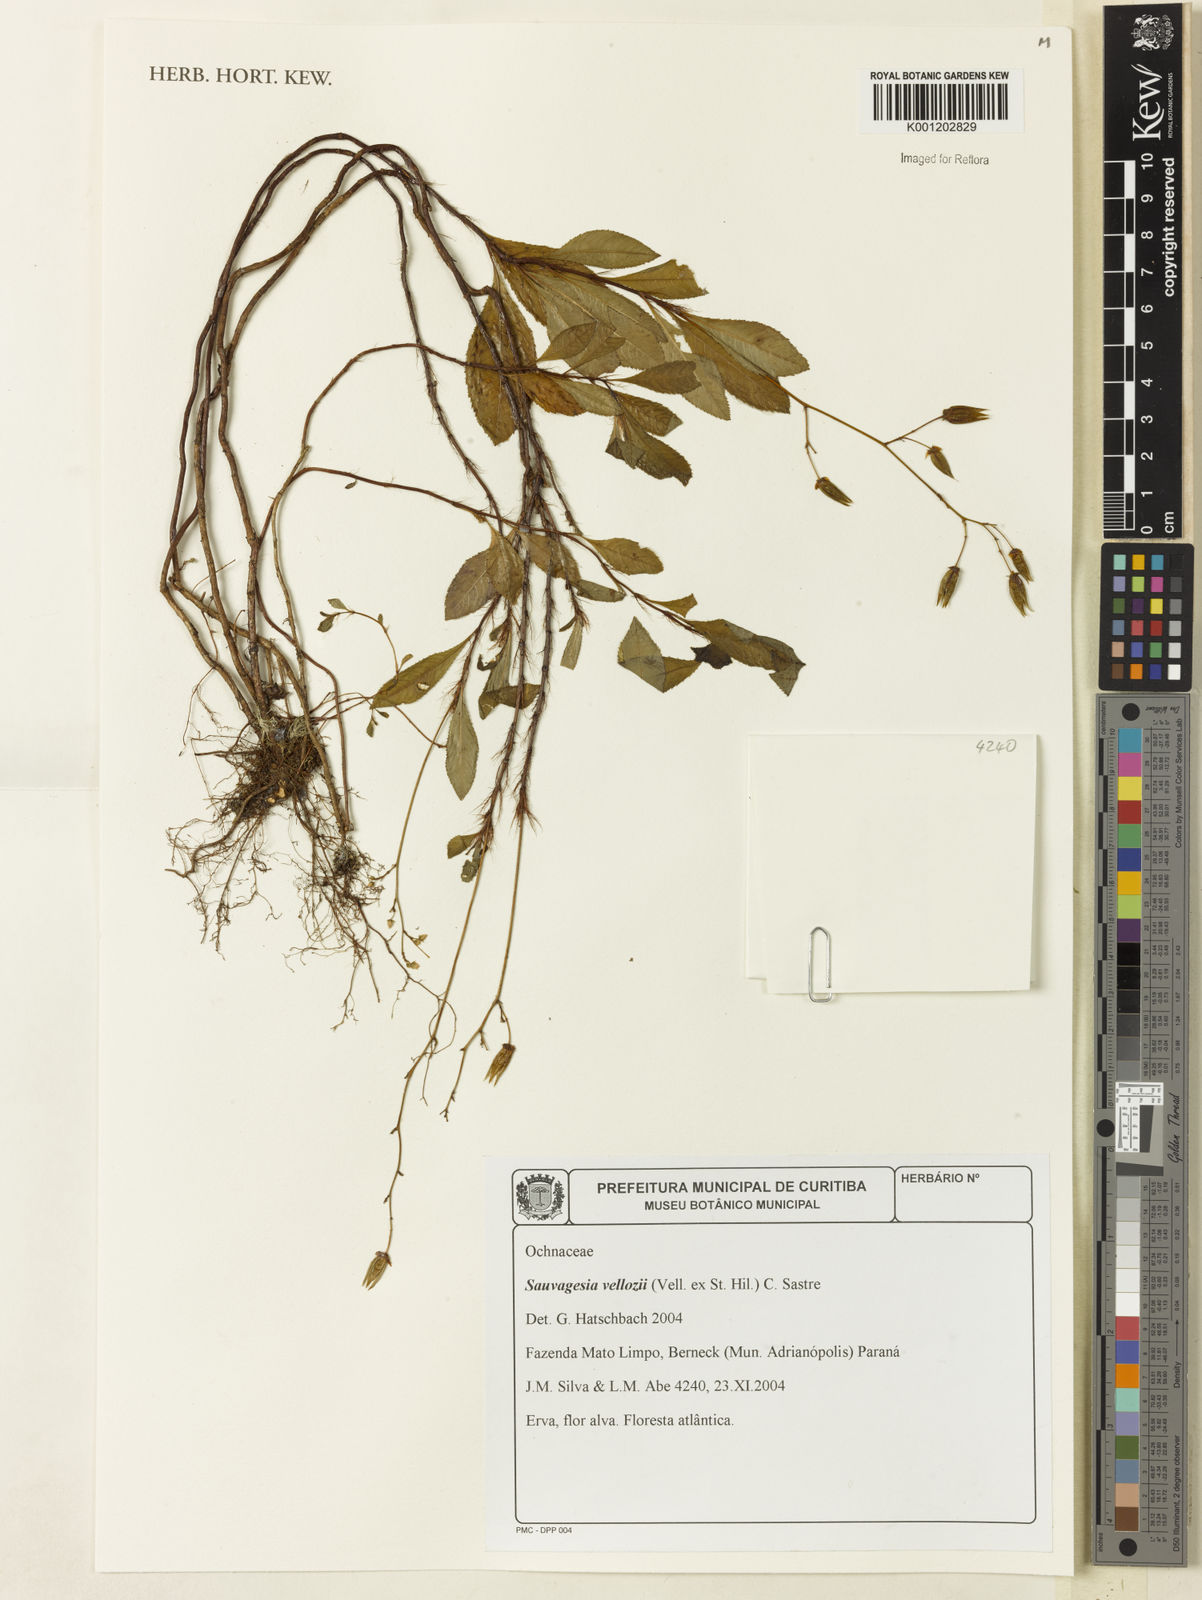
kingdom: Plantae
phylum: Tracheophyta
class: Magnoliopsida
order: Malpighiales
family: Ochnaceae
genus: Sauvagesia
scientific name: Sauvagesia
